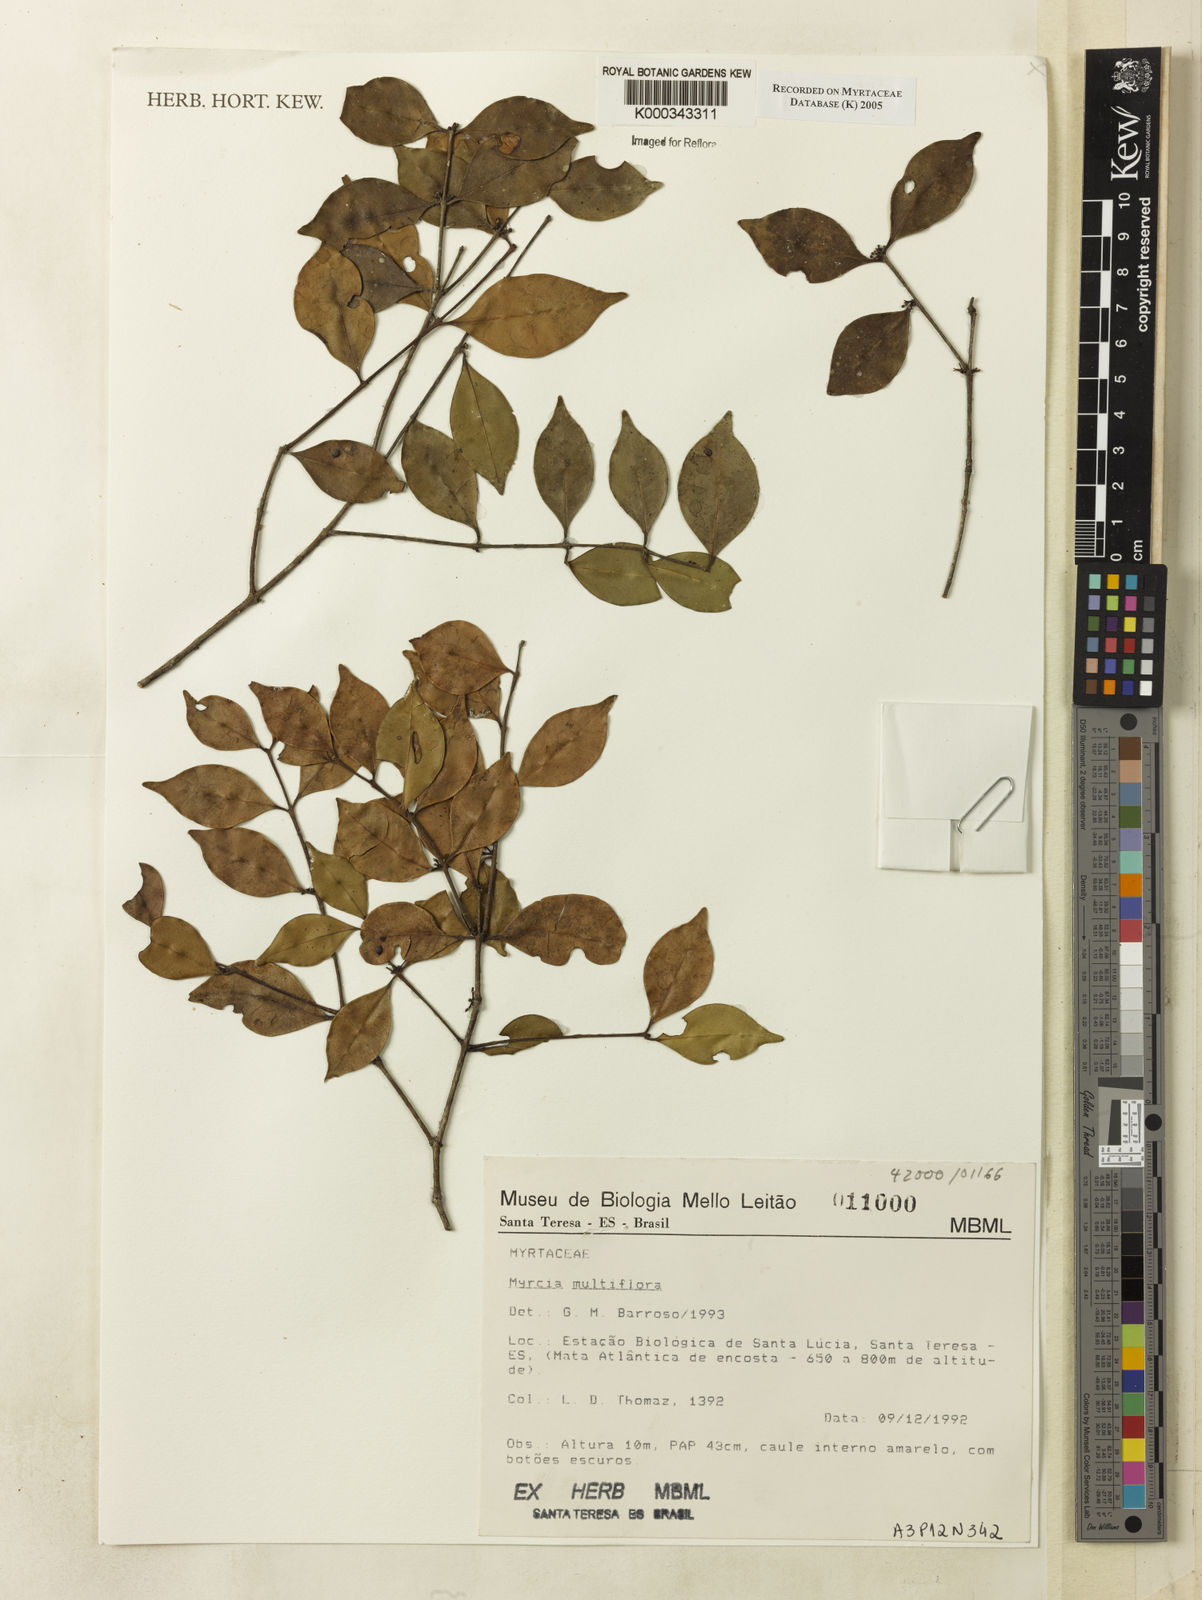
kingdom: Plantae
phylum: Tracheophyta
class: Magnoliopsida
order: Myrtales
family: Myrtaceae
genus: Myrcia
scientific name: Myrcia multiflora
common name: Pedra hume
